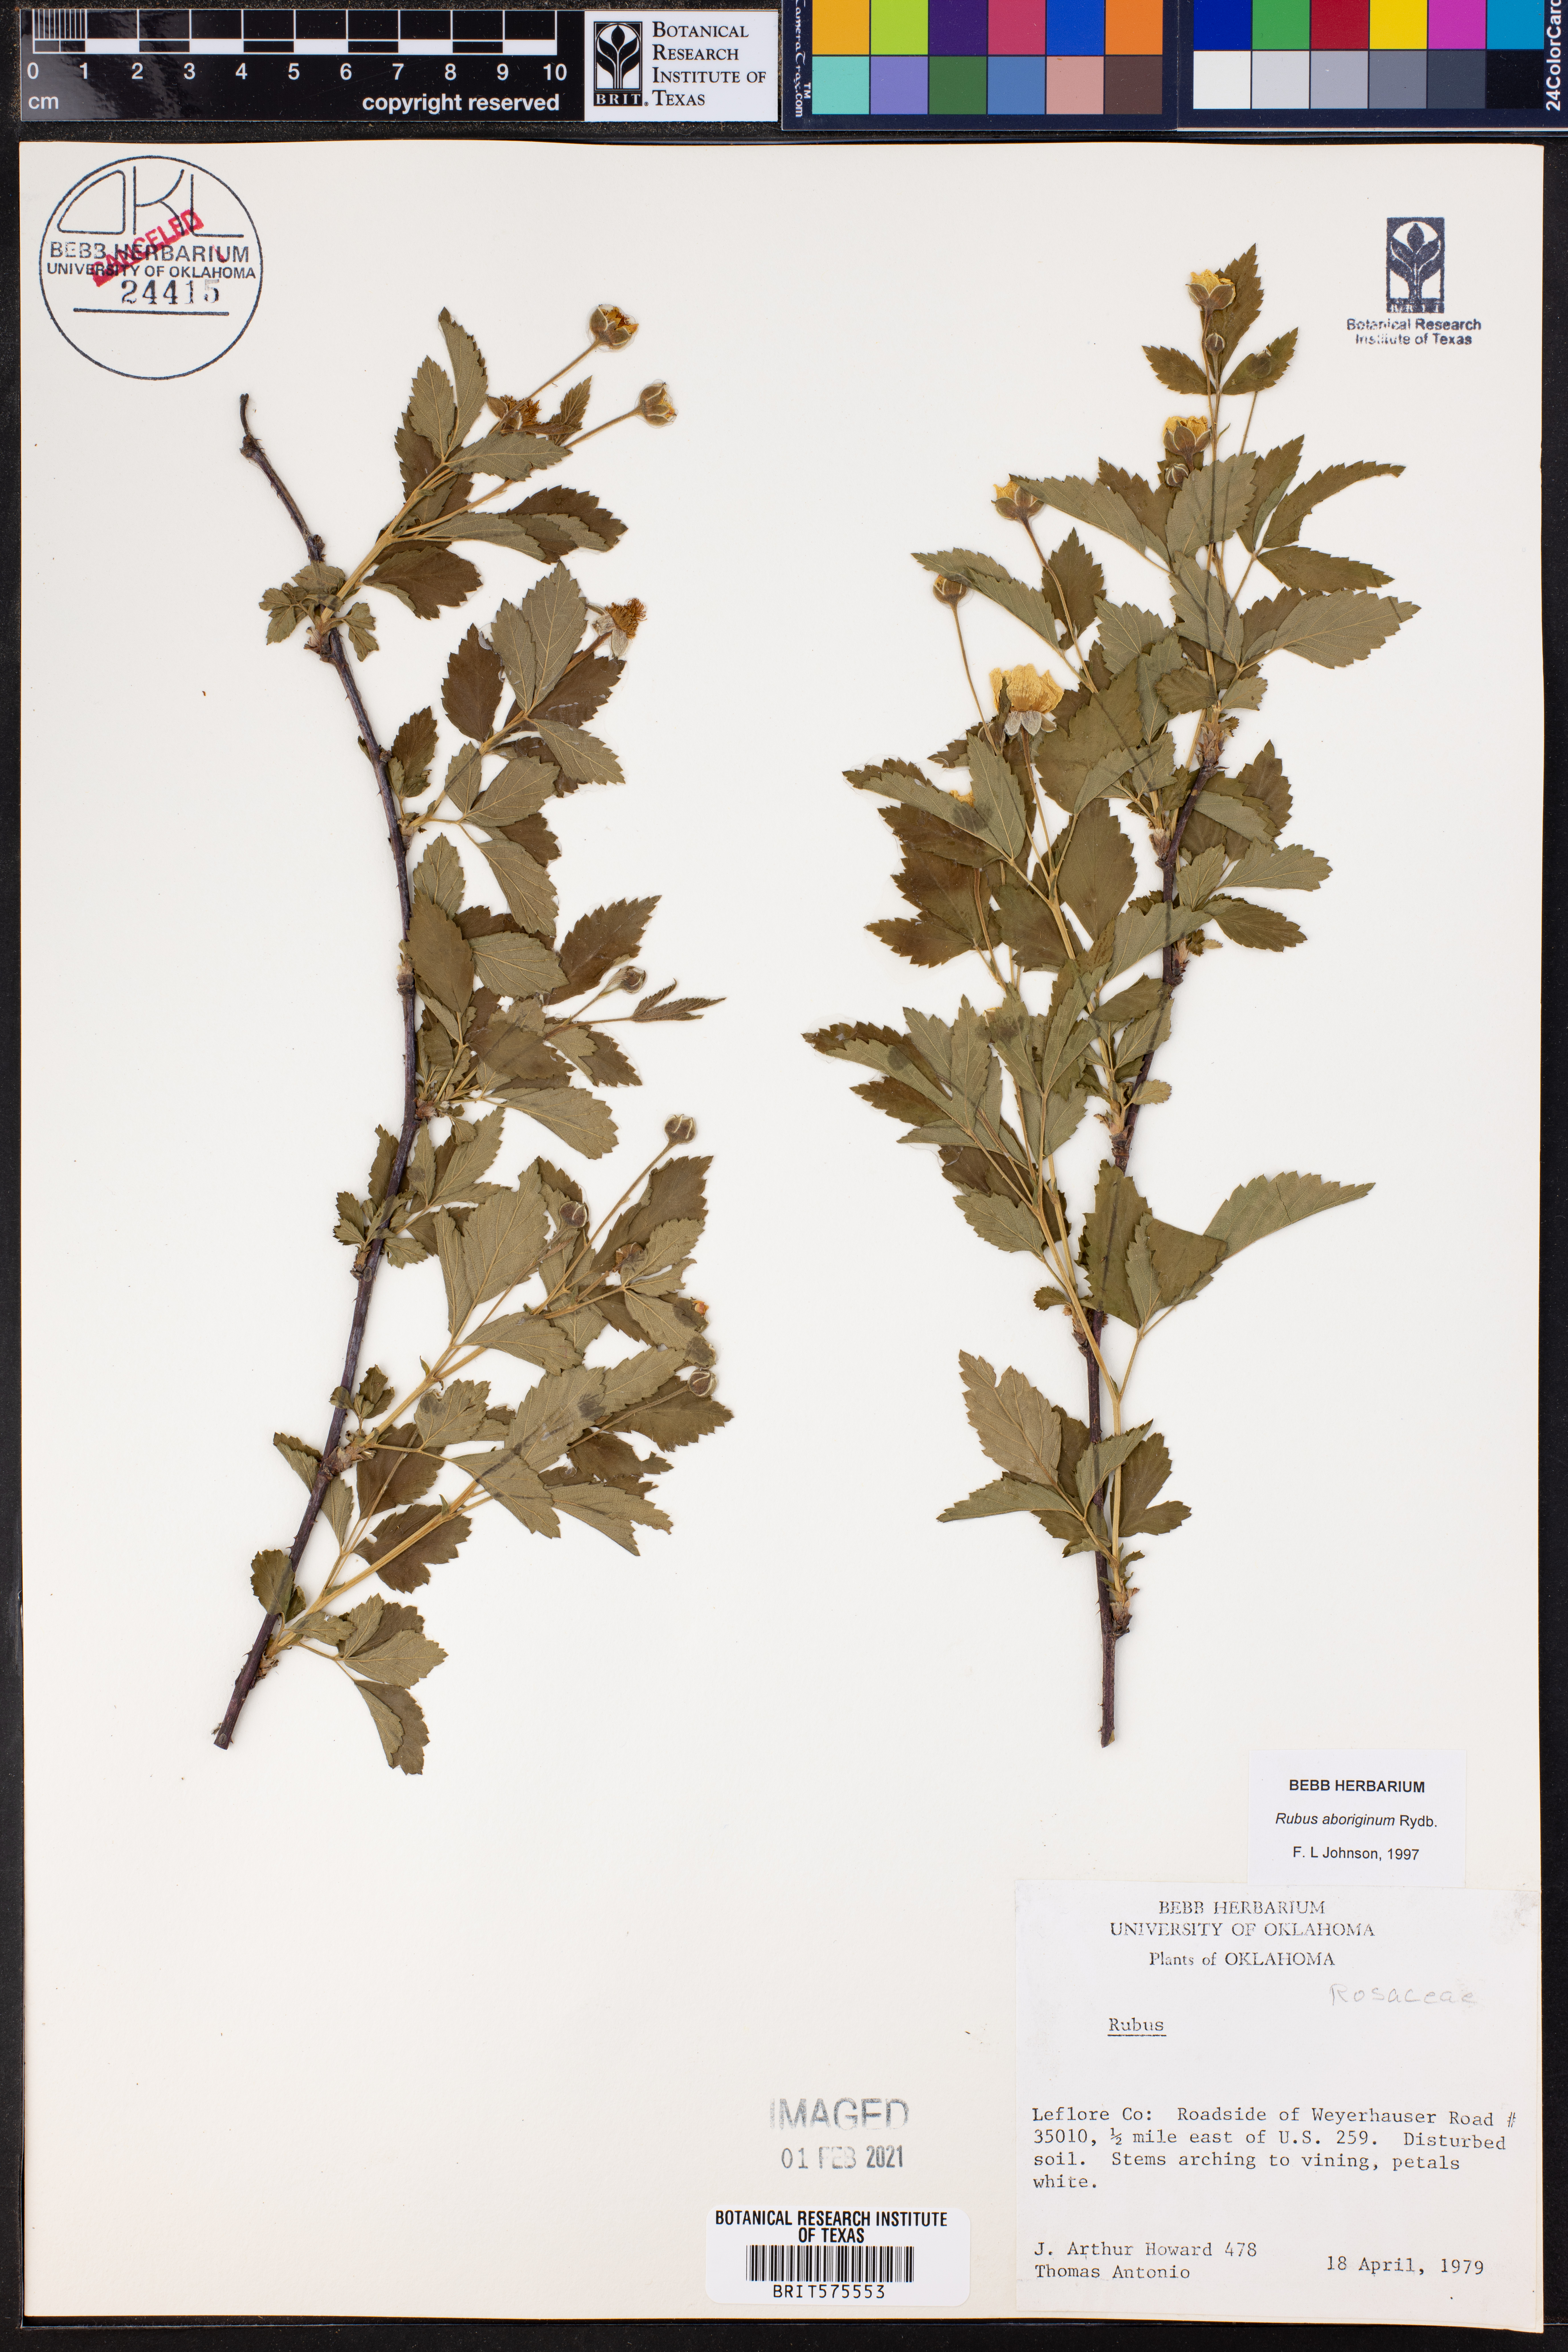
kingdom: Plantae
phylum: Tracheophyta
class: Magnoliopsida
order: Rosales
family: Rosaceae
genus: Rubus
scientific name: Rubus aboriginum
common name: Mayes dewberry
